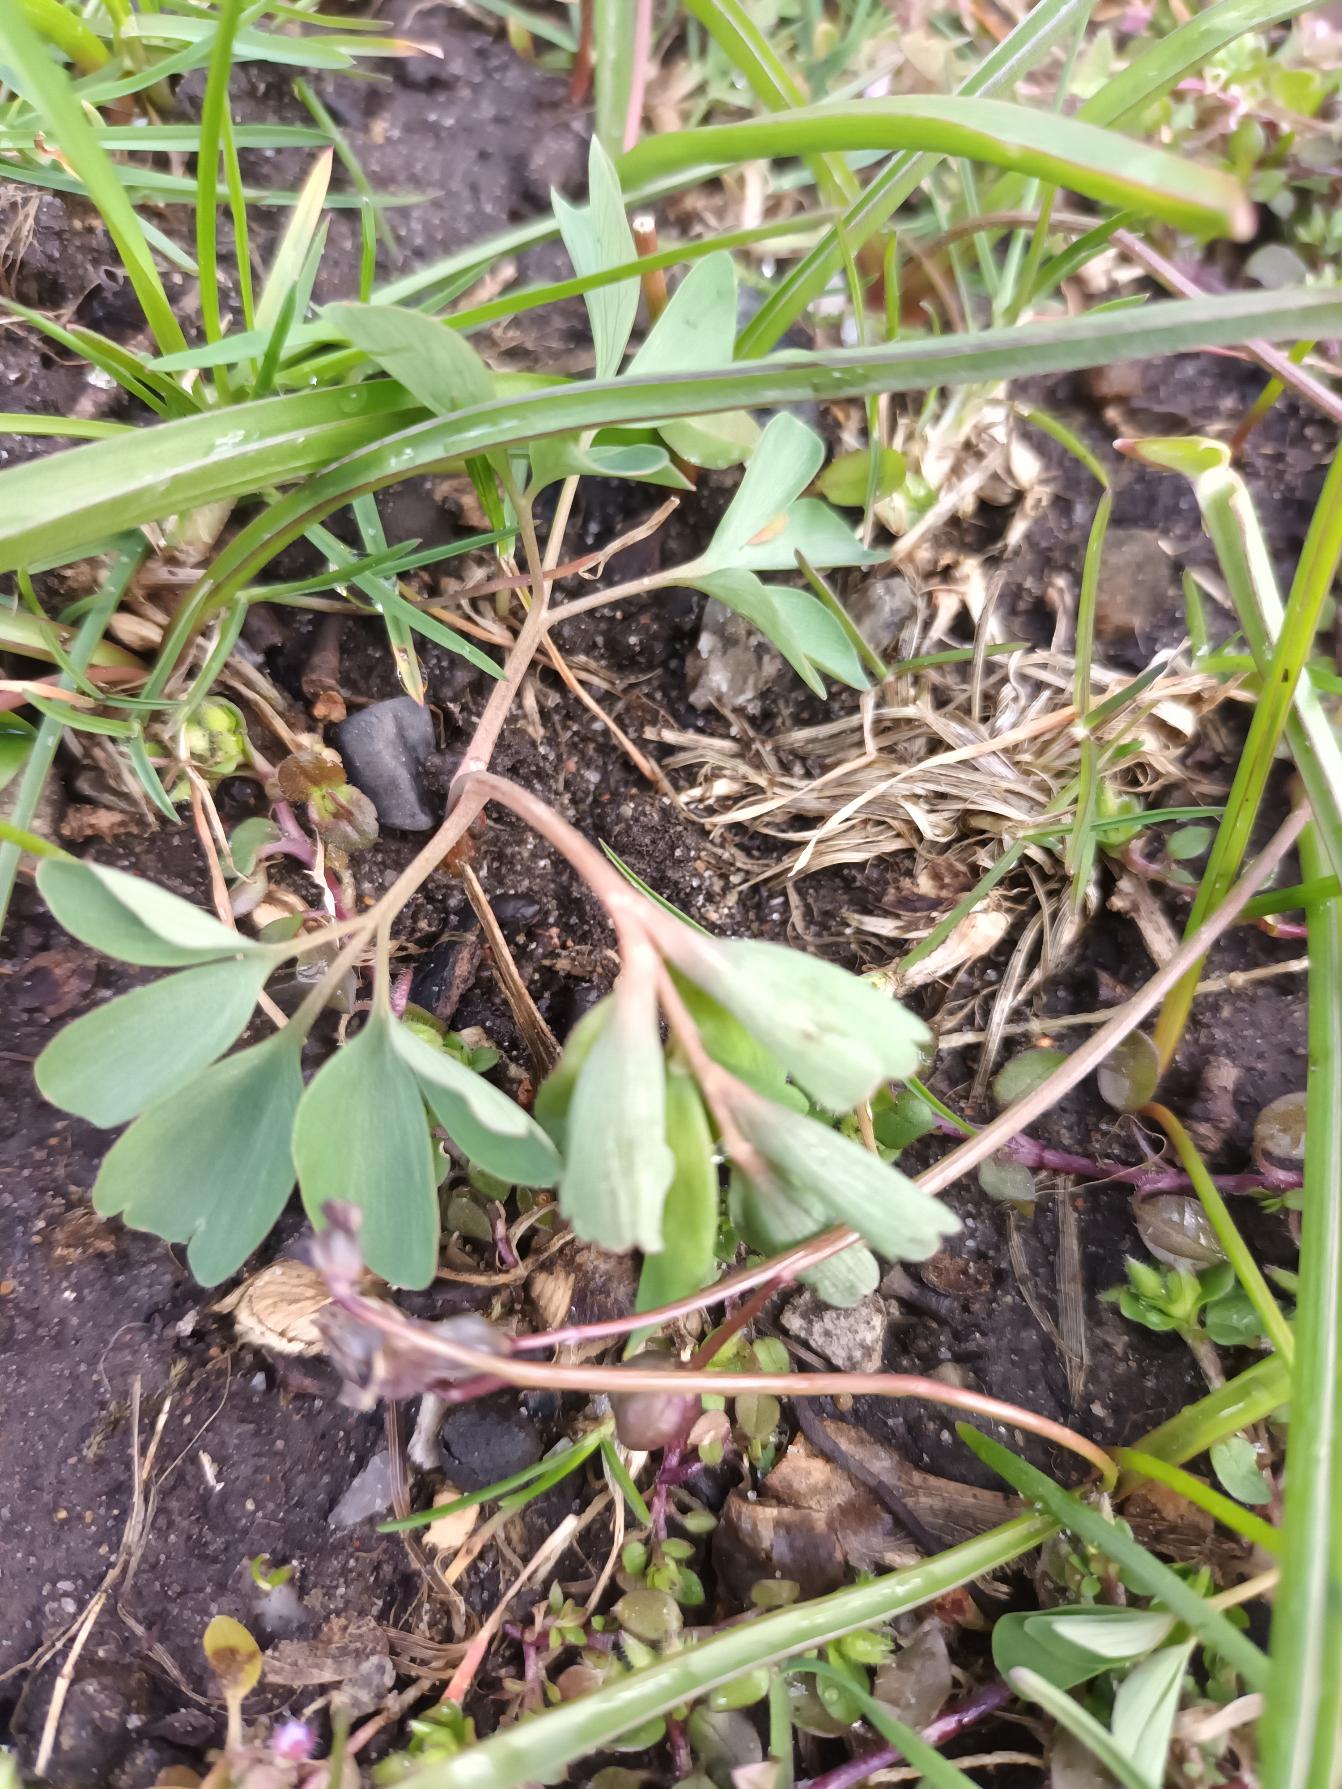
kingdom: Plantae
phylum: Tracheophyta
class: Magnoliopsida
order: Ranunculales
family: Papaveraceae
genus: Corydalis
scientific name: Corydalis pumila
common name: Finger-lærkespore
